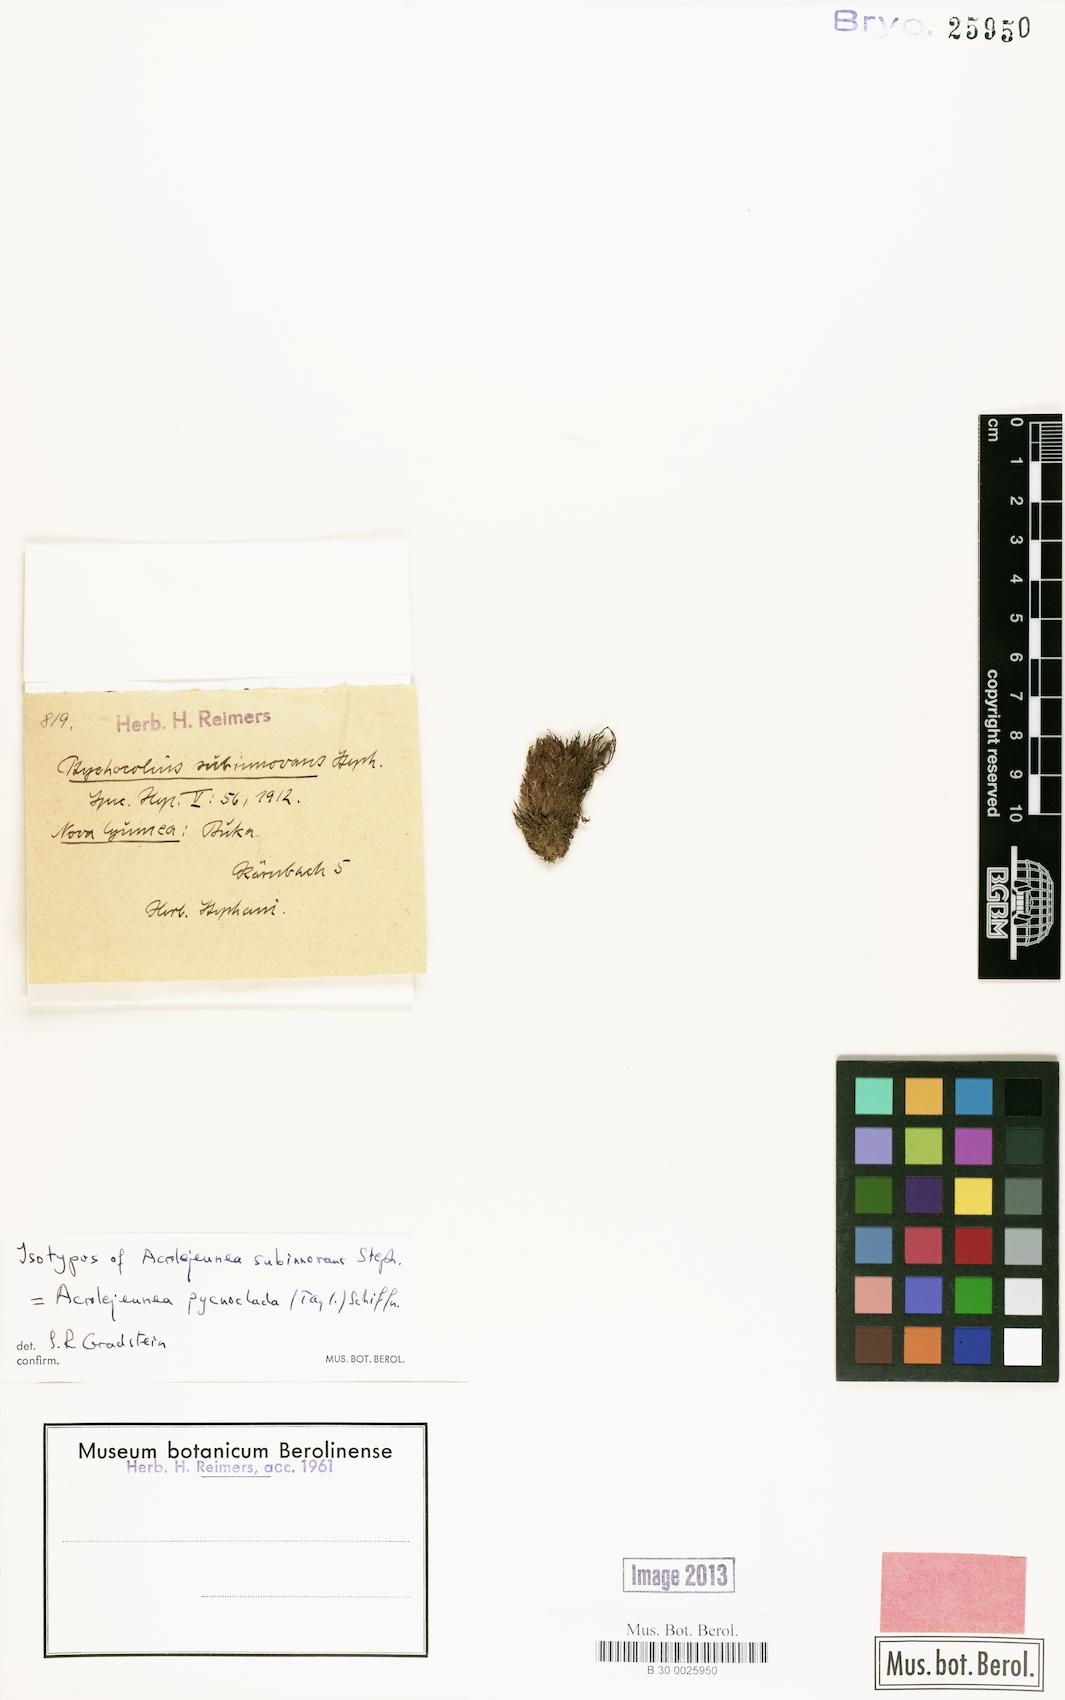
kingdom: Plantae
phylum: Marchantiophyta
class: Jungermanniopsida
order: Porellales
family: Lejeuneaceae
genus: Acrolejeunea
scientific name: Acrolejeunea pycnoclada
